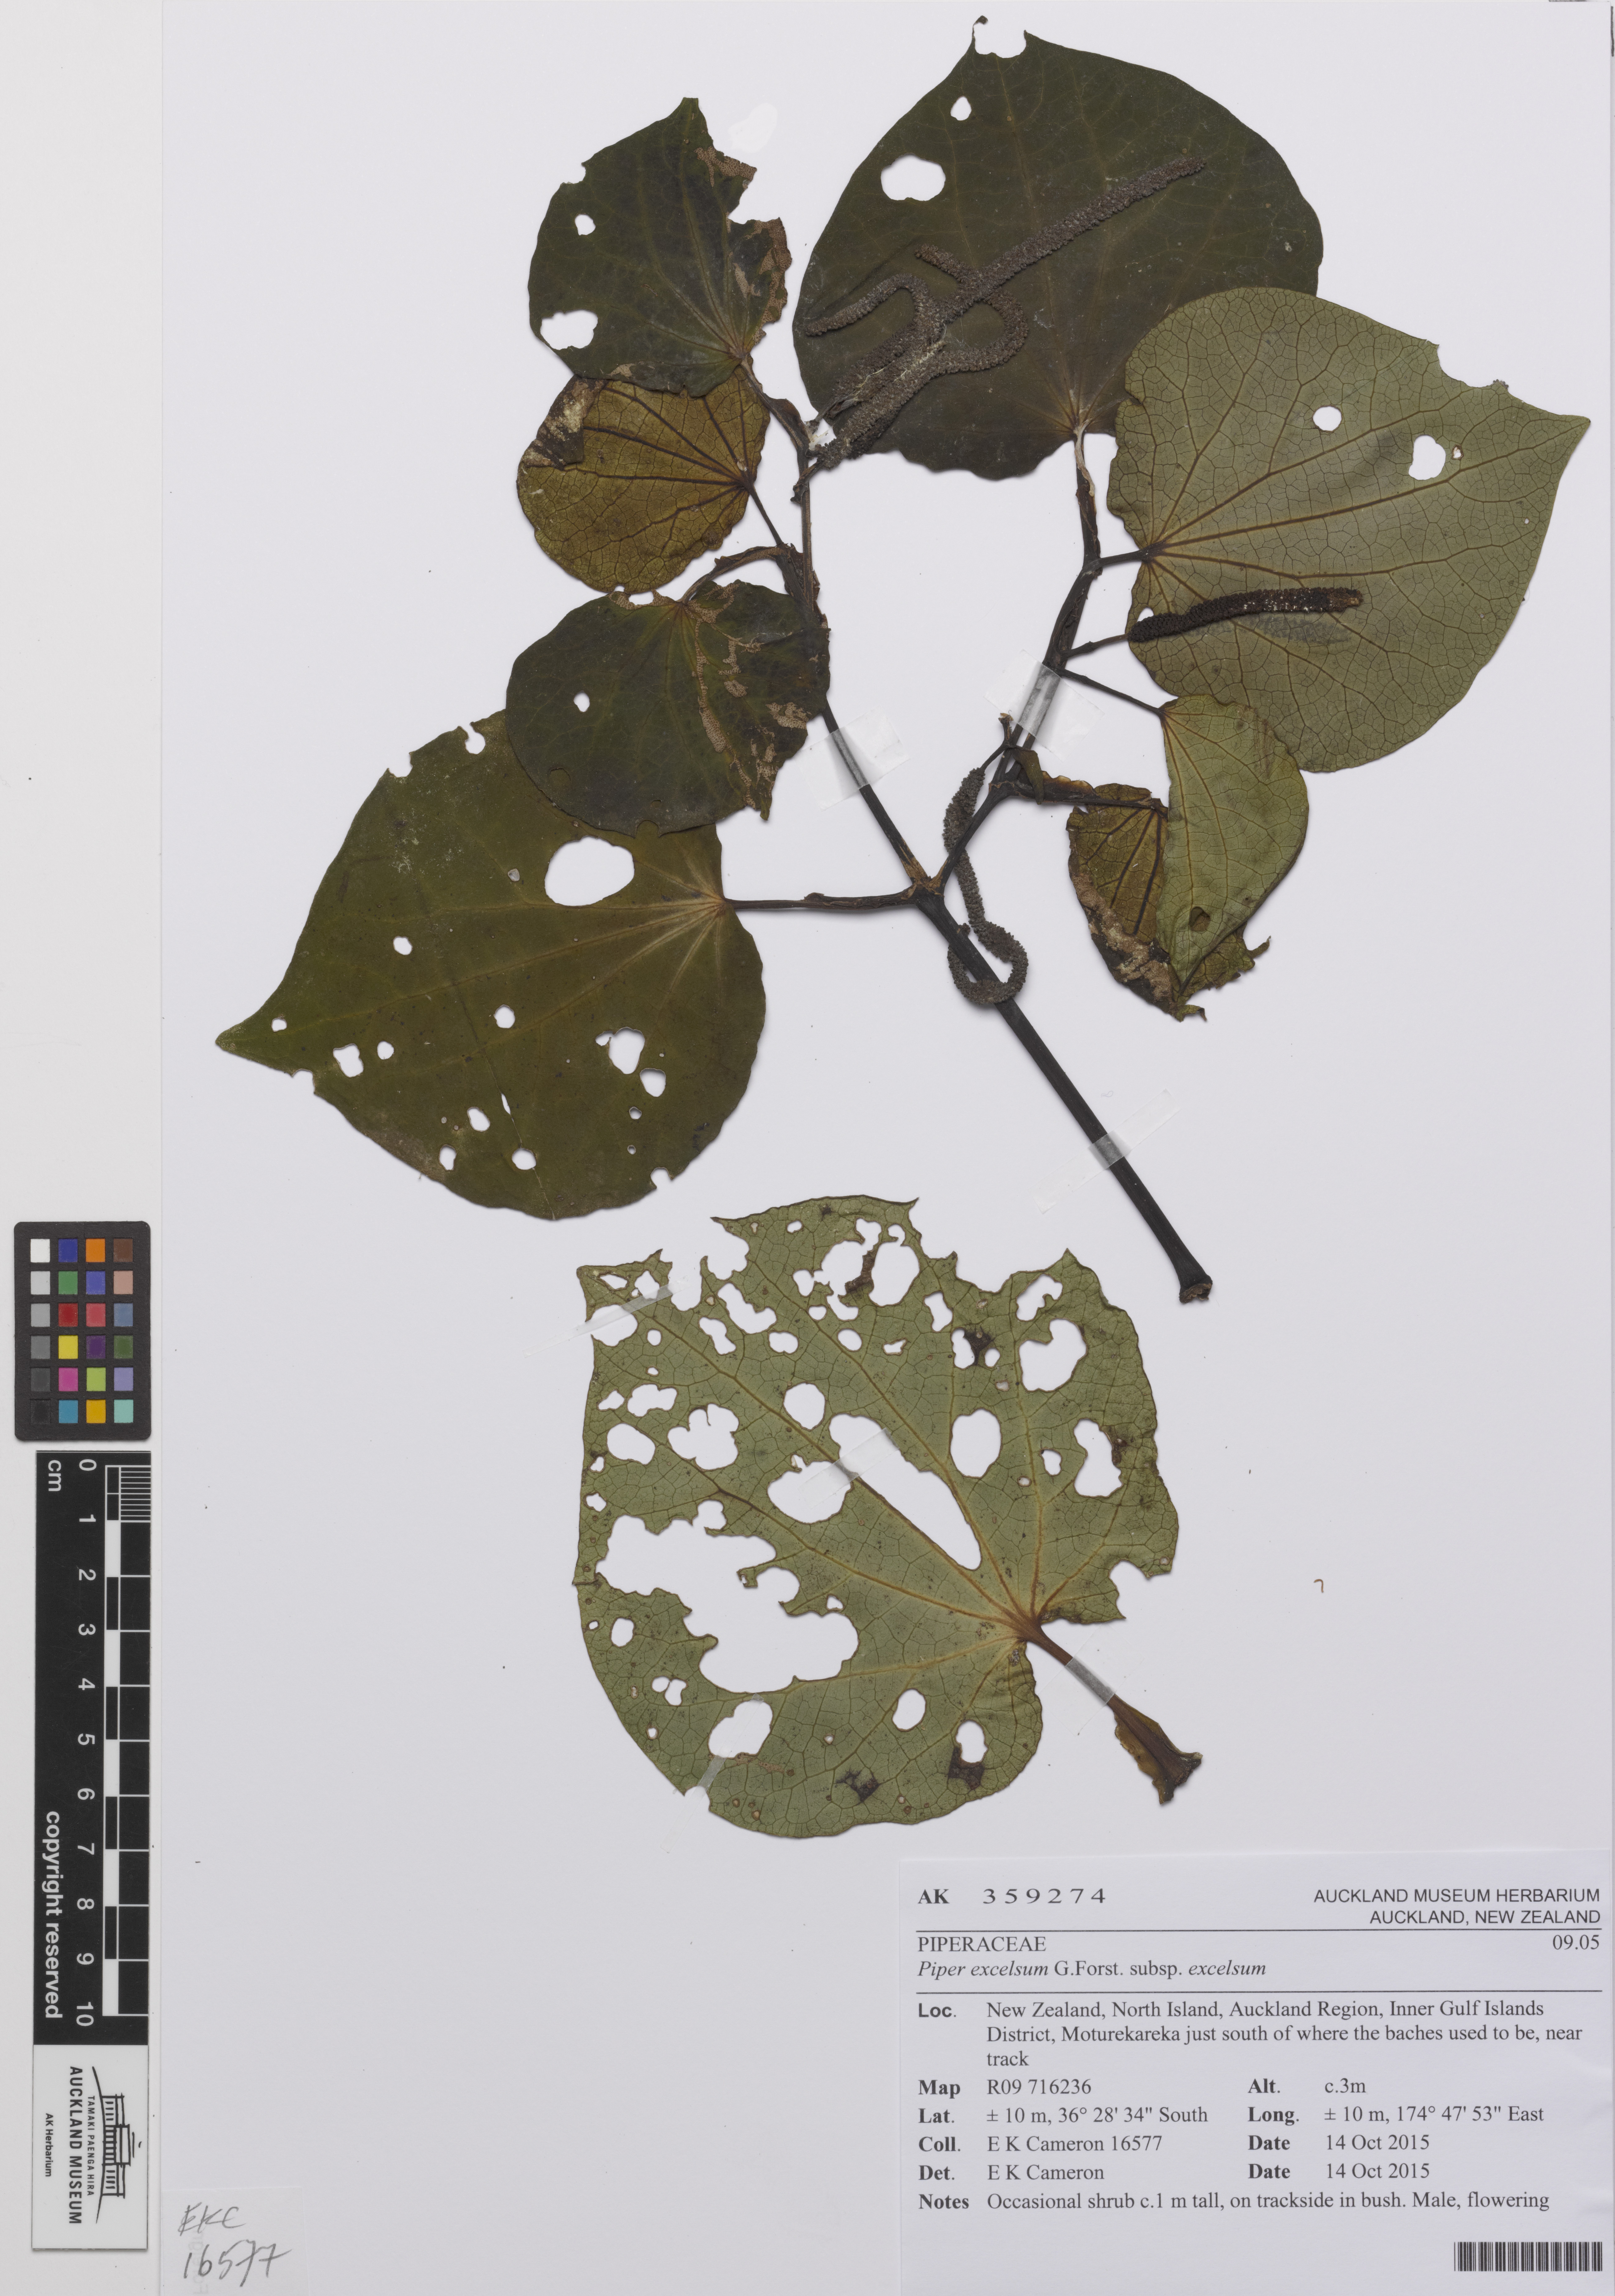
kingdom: Plantae
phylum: Tracheophyta
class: Magnoliopsida
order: Piperales
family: Piperaceae
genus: Macropiper
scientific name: Macropiper excelsum
